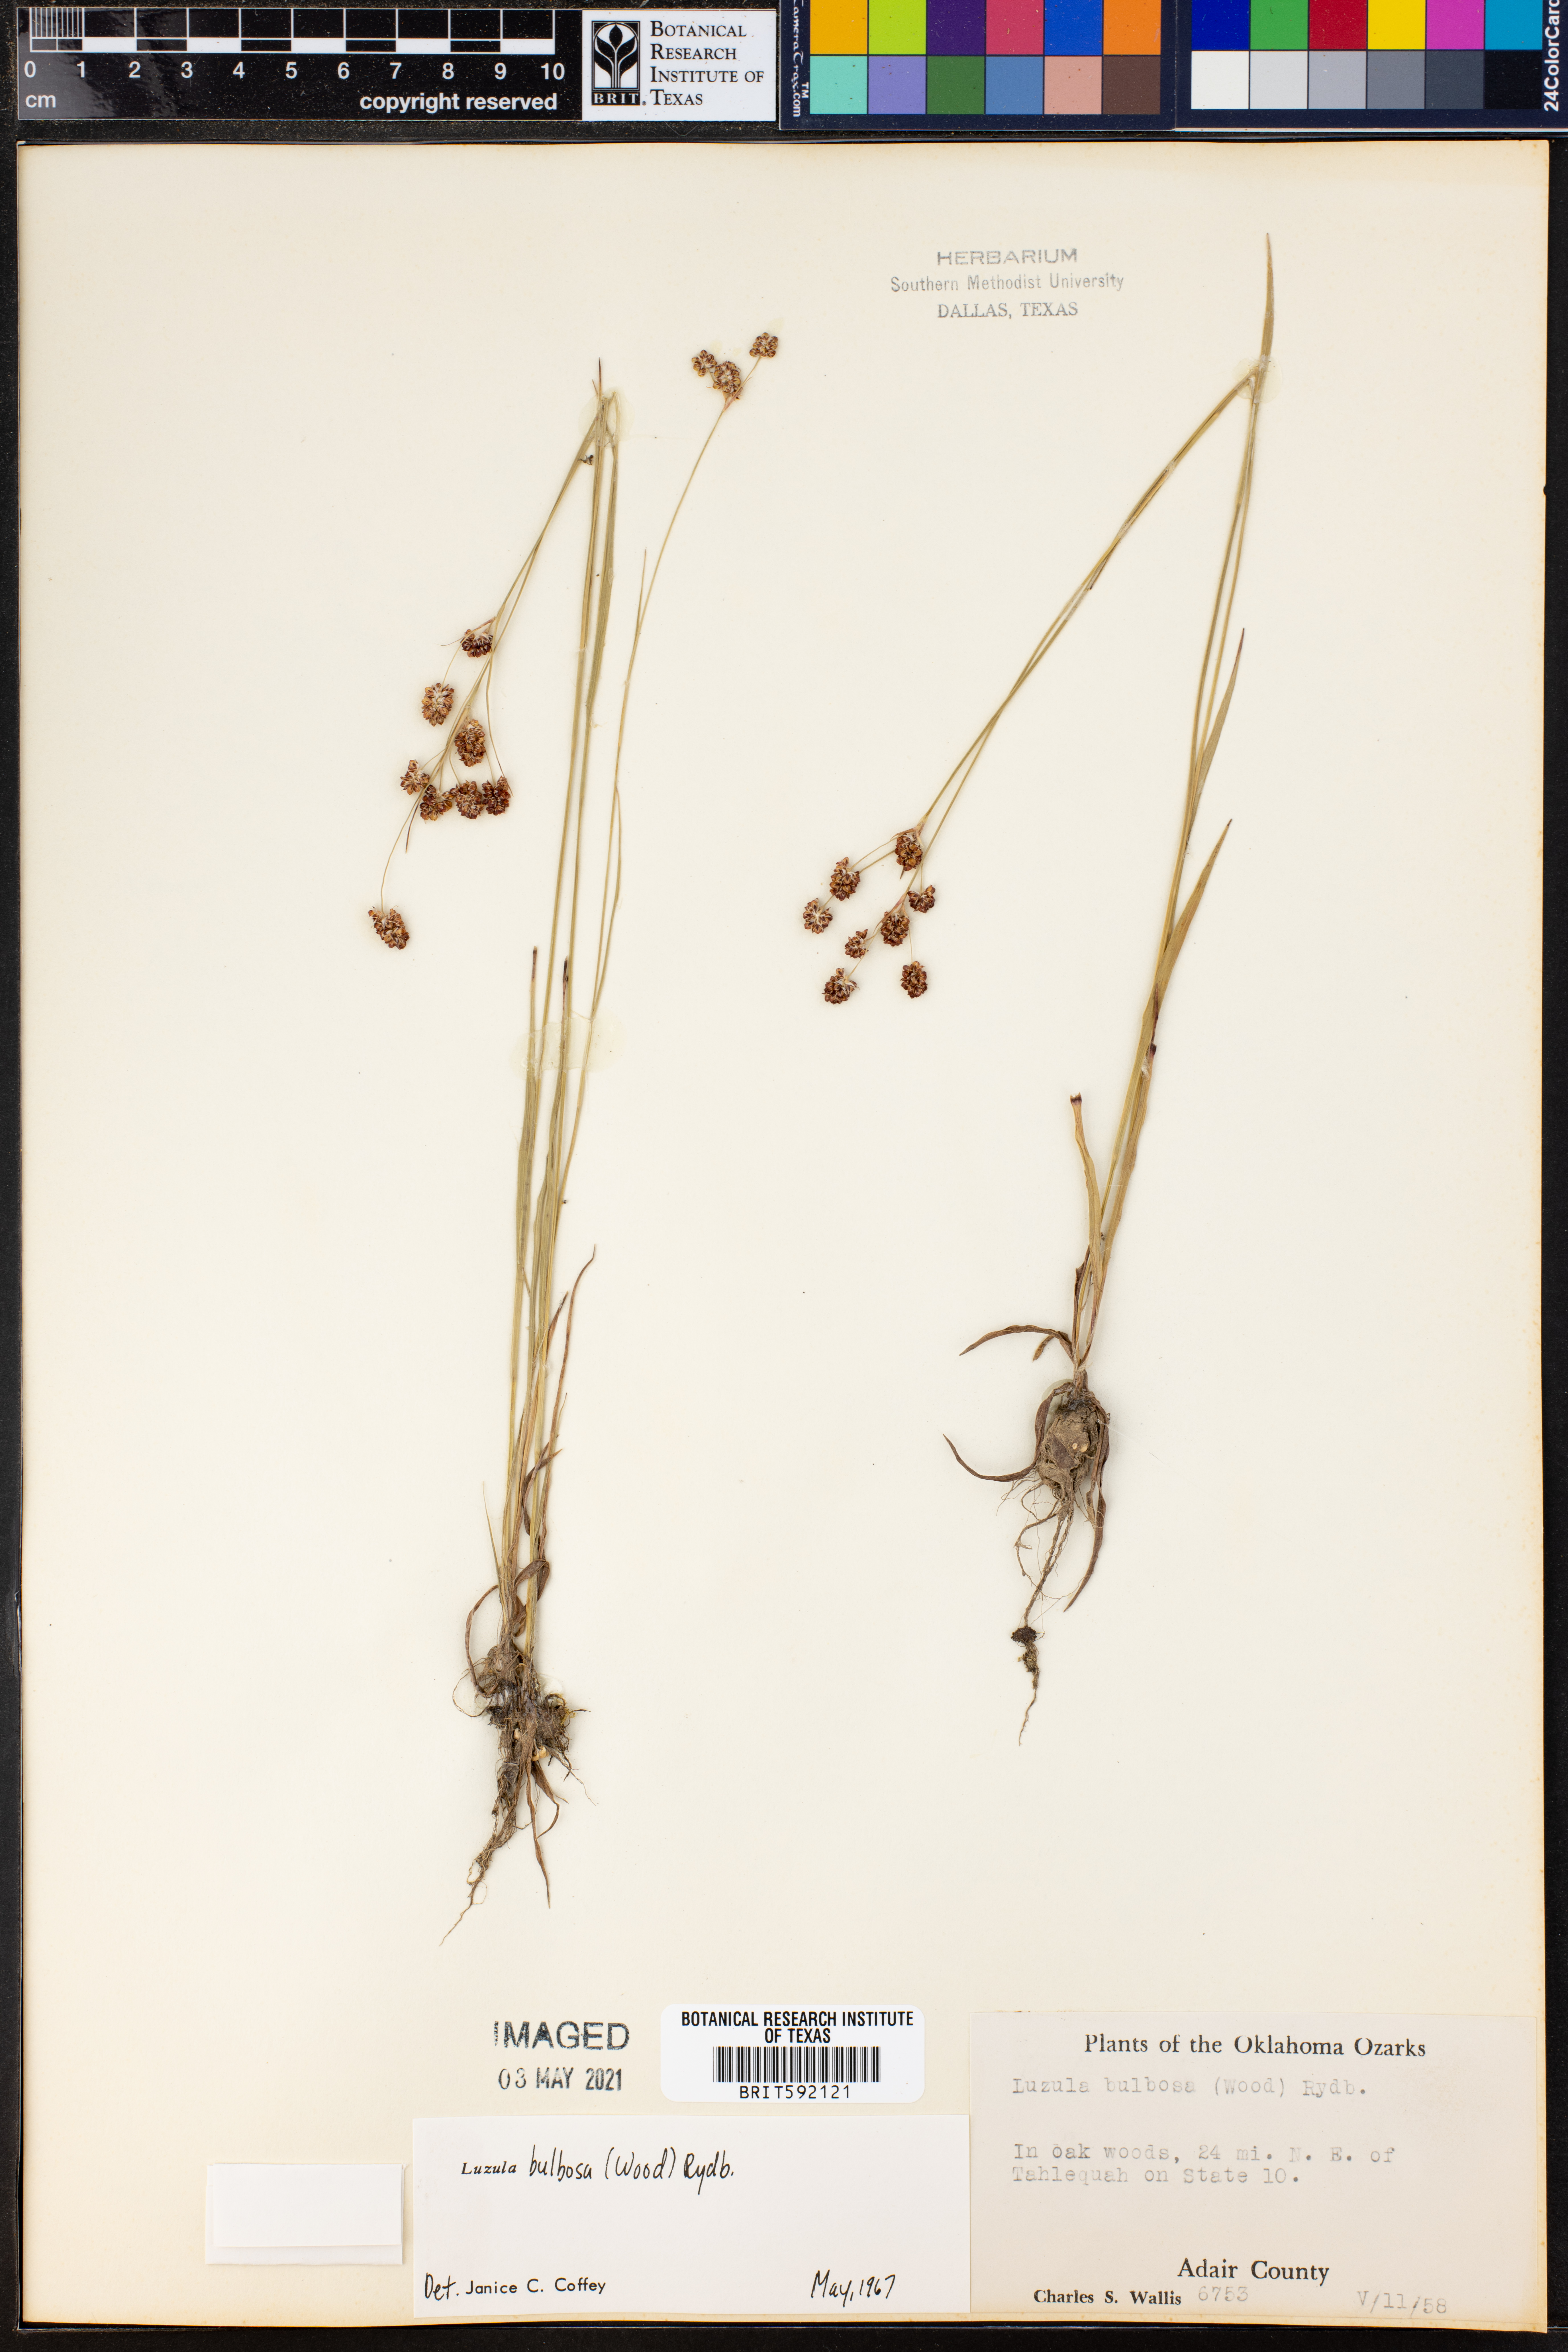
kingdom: Plantae
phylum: Tracheophyta
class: Liliopsida
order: Poales
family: Juncaceae
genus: Luzula
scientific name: Luzula bulbosa
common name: Bulbous woodrush
